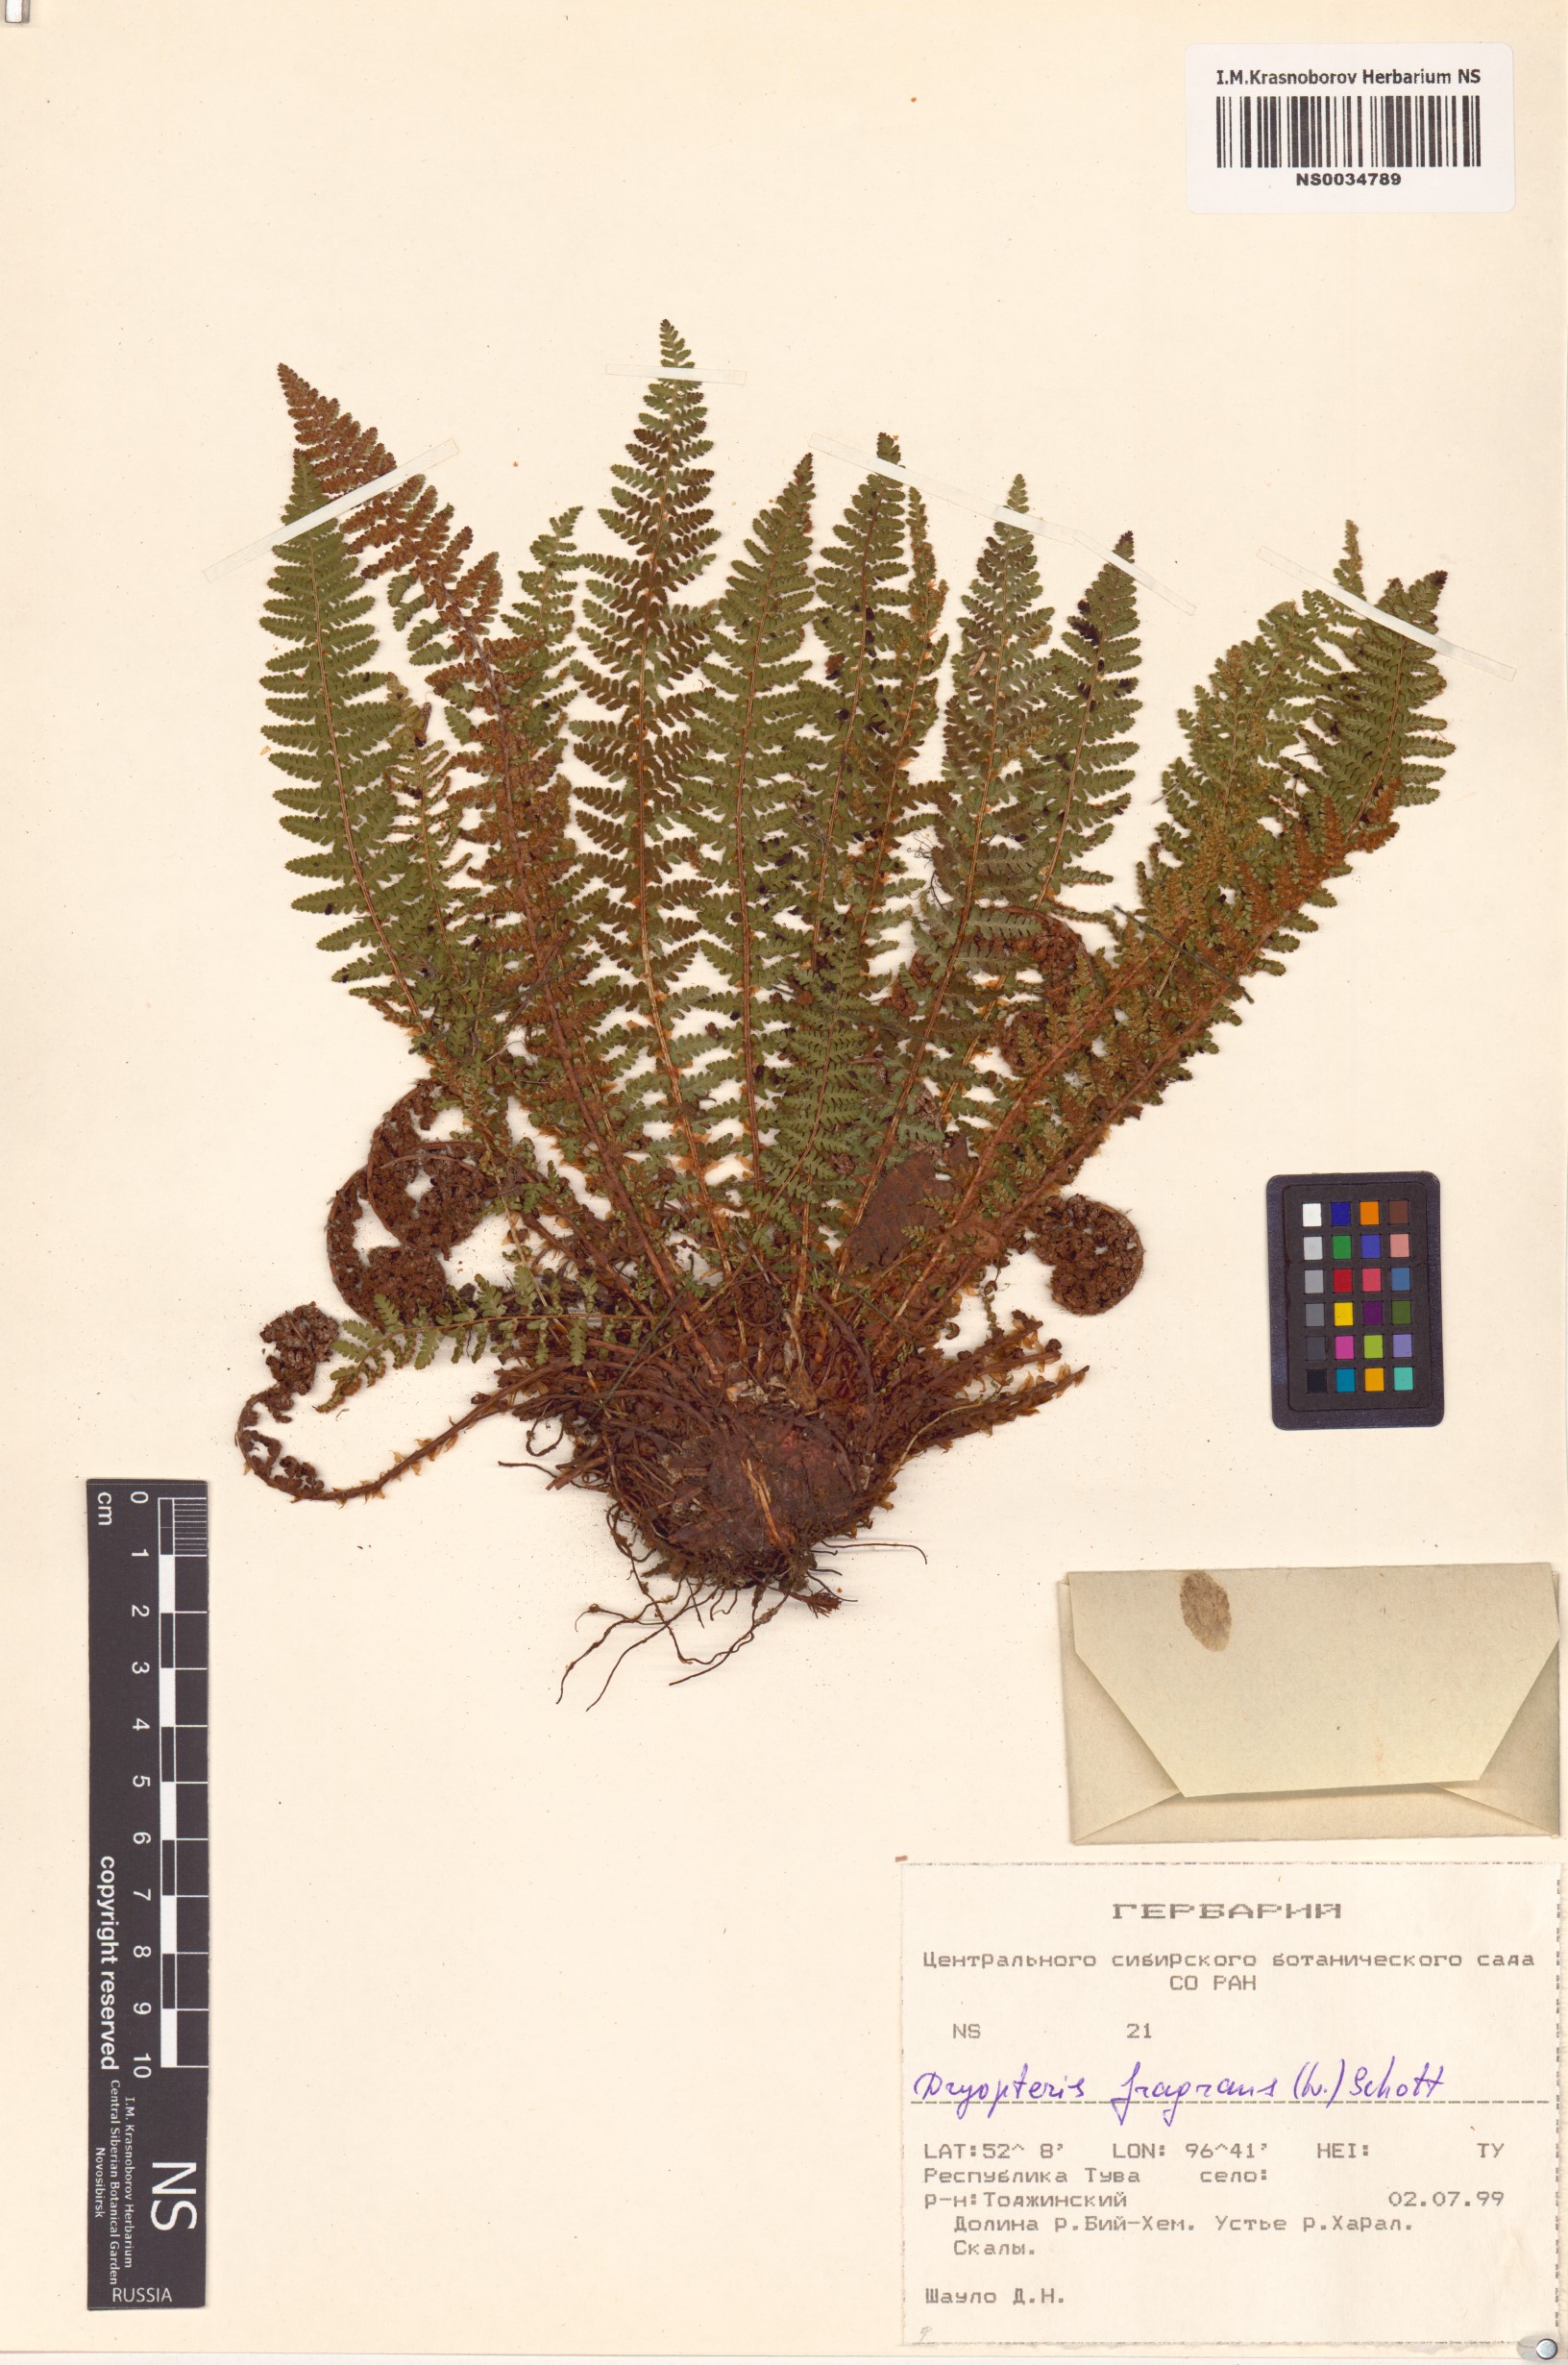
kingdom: Plantae
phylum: Tracheophyta
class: Polypodiopsida
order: Polypodiales
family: Dryopteridaceae
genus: Dryopteris
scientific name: Dryopteris fragrans
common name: Fragrant wood fern
